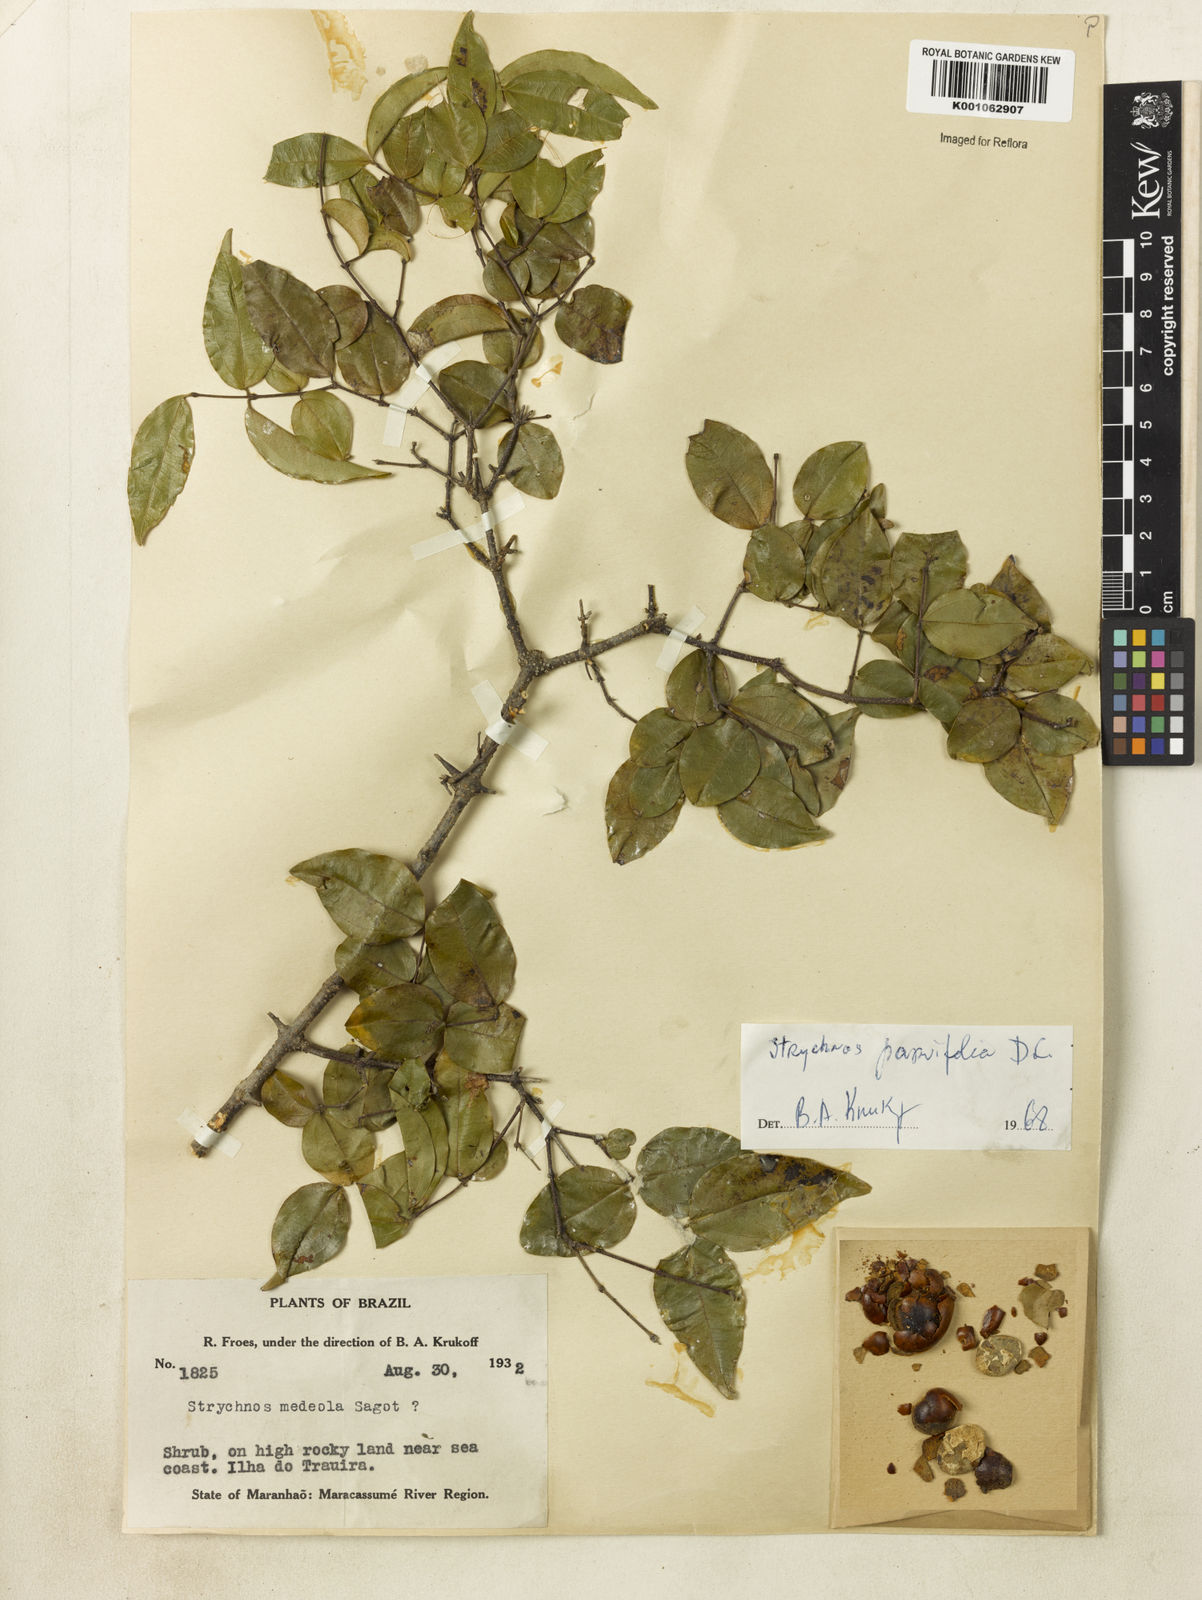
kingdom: Plantae
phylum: Tracheophyta
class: Magnoliopsida
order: Gentianales
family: Loganiaceae
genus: Strychnos
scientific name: Strychnos parvifolia
